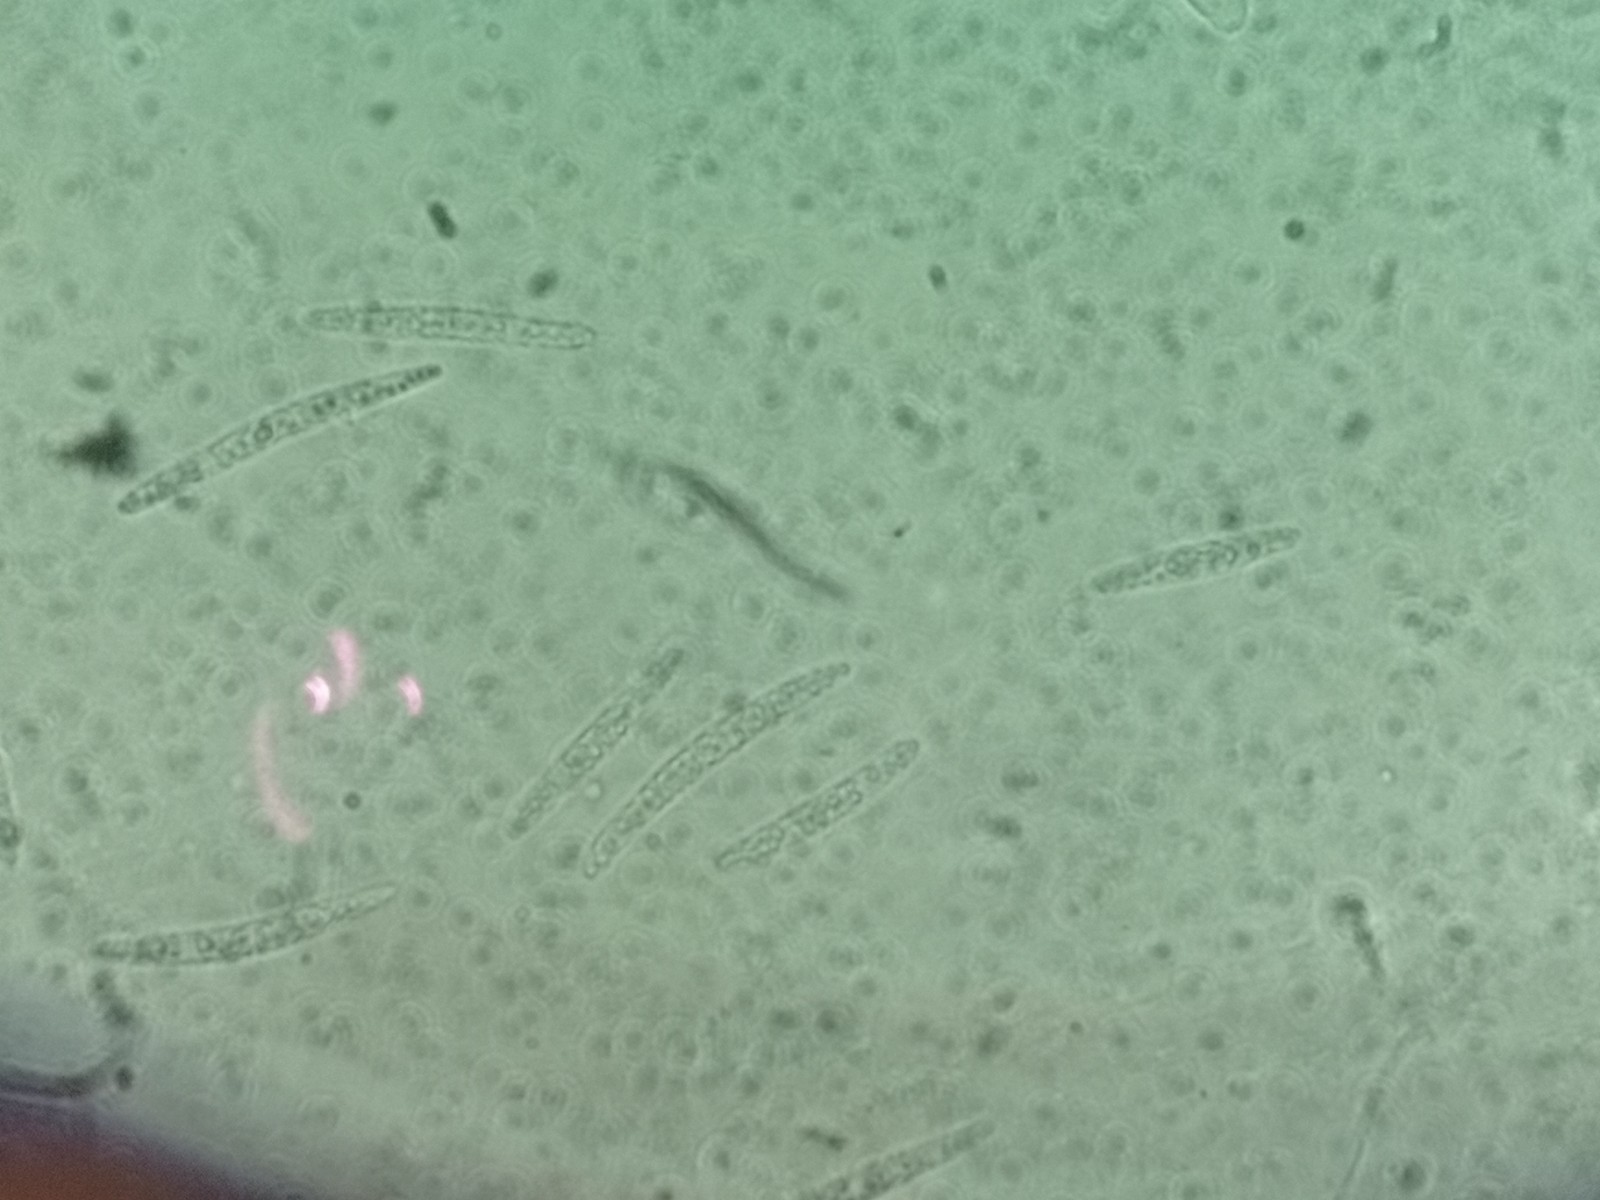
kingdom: Fungi
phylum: Ascomycota
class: Leotiomycetes
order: Helotiales
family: Lachnaceae
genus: Lachnum
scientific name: Lachnum sulphureum
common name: svovlhåret frynseskive
